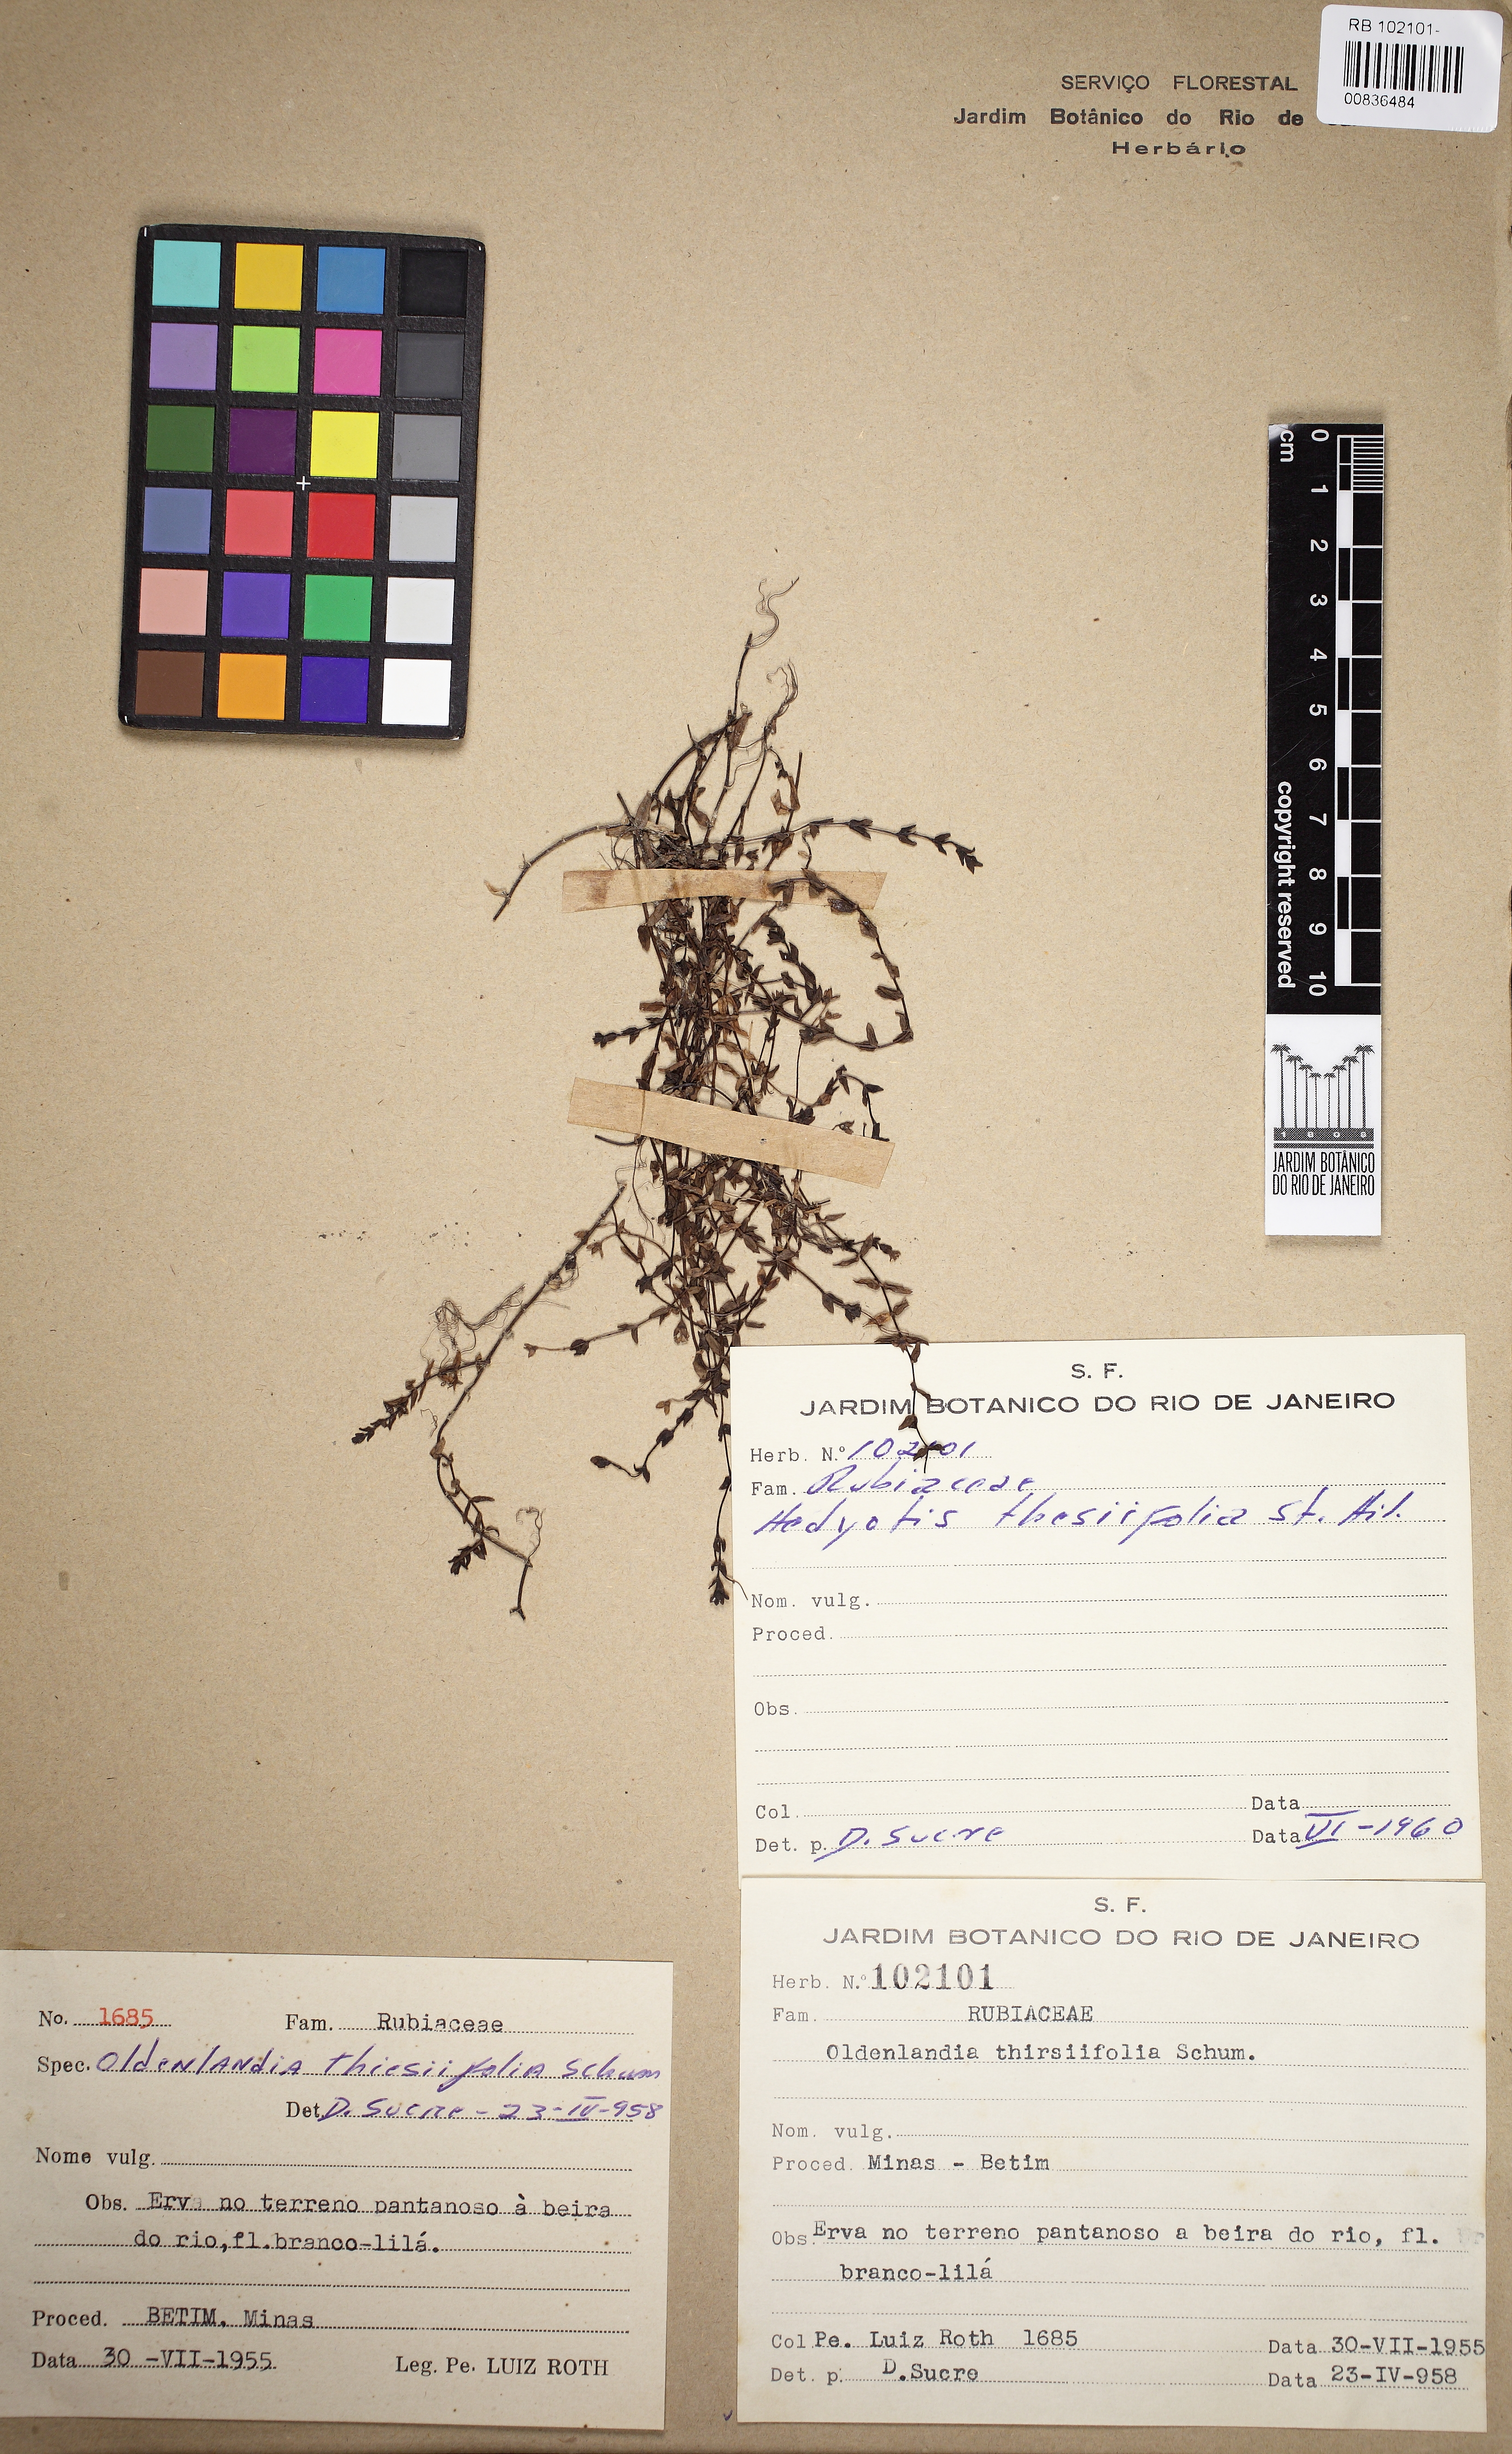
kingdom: Plantae
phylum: Tracheophyta
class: Magnoliopsida
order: Gentianales
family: Rubiaceae
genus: Oldenlandia
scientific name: Oldenlandia salzmannii
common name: Salzmann's mille graines
